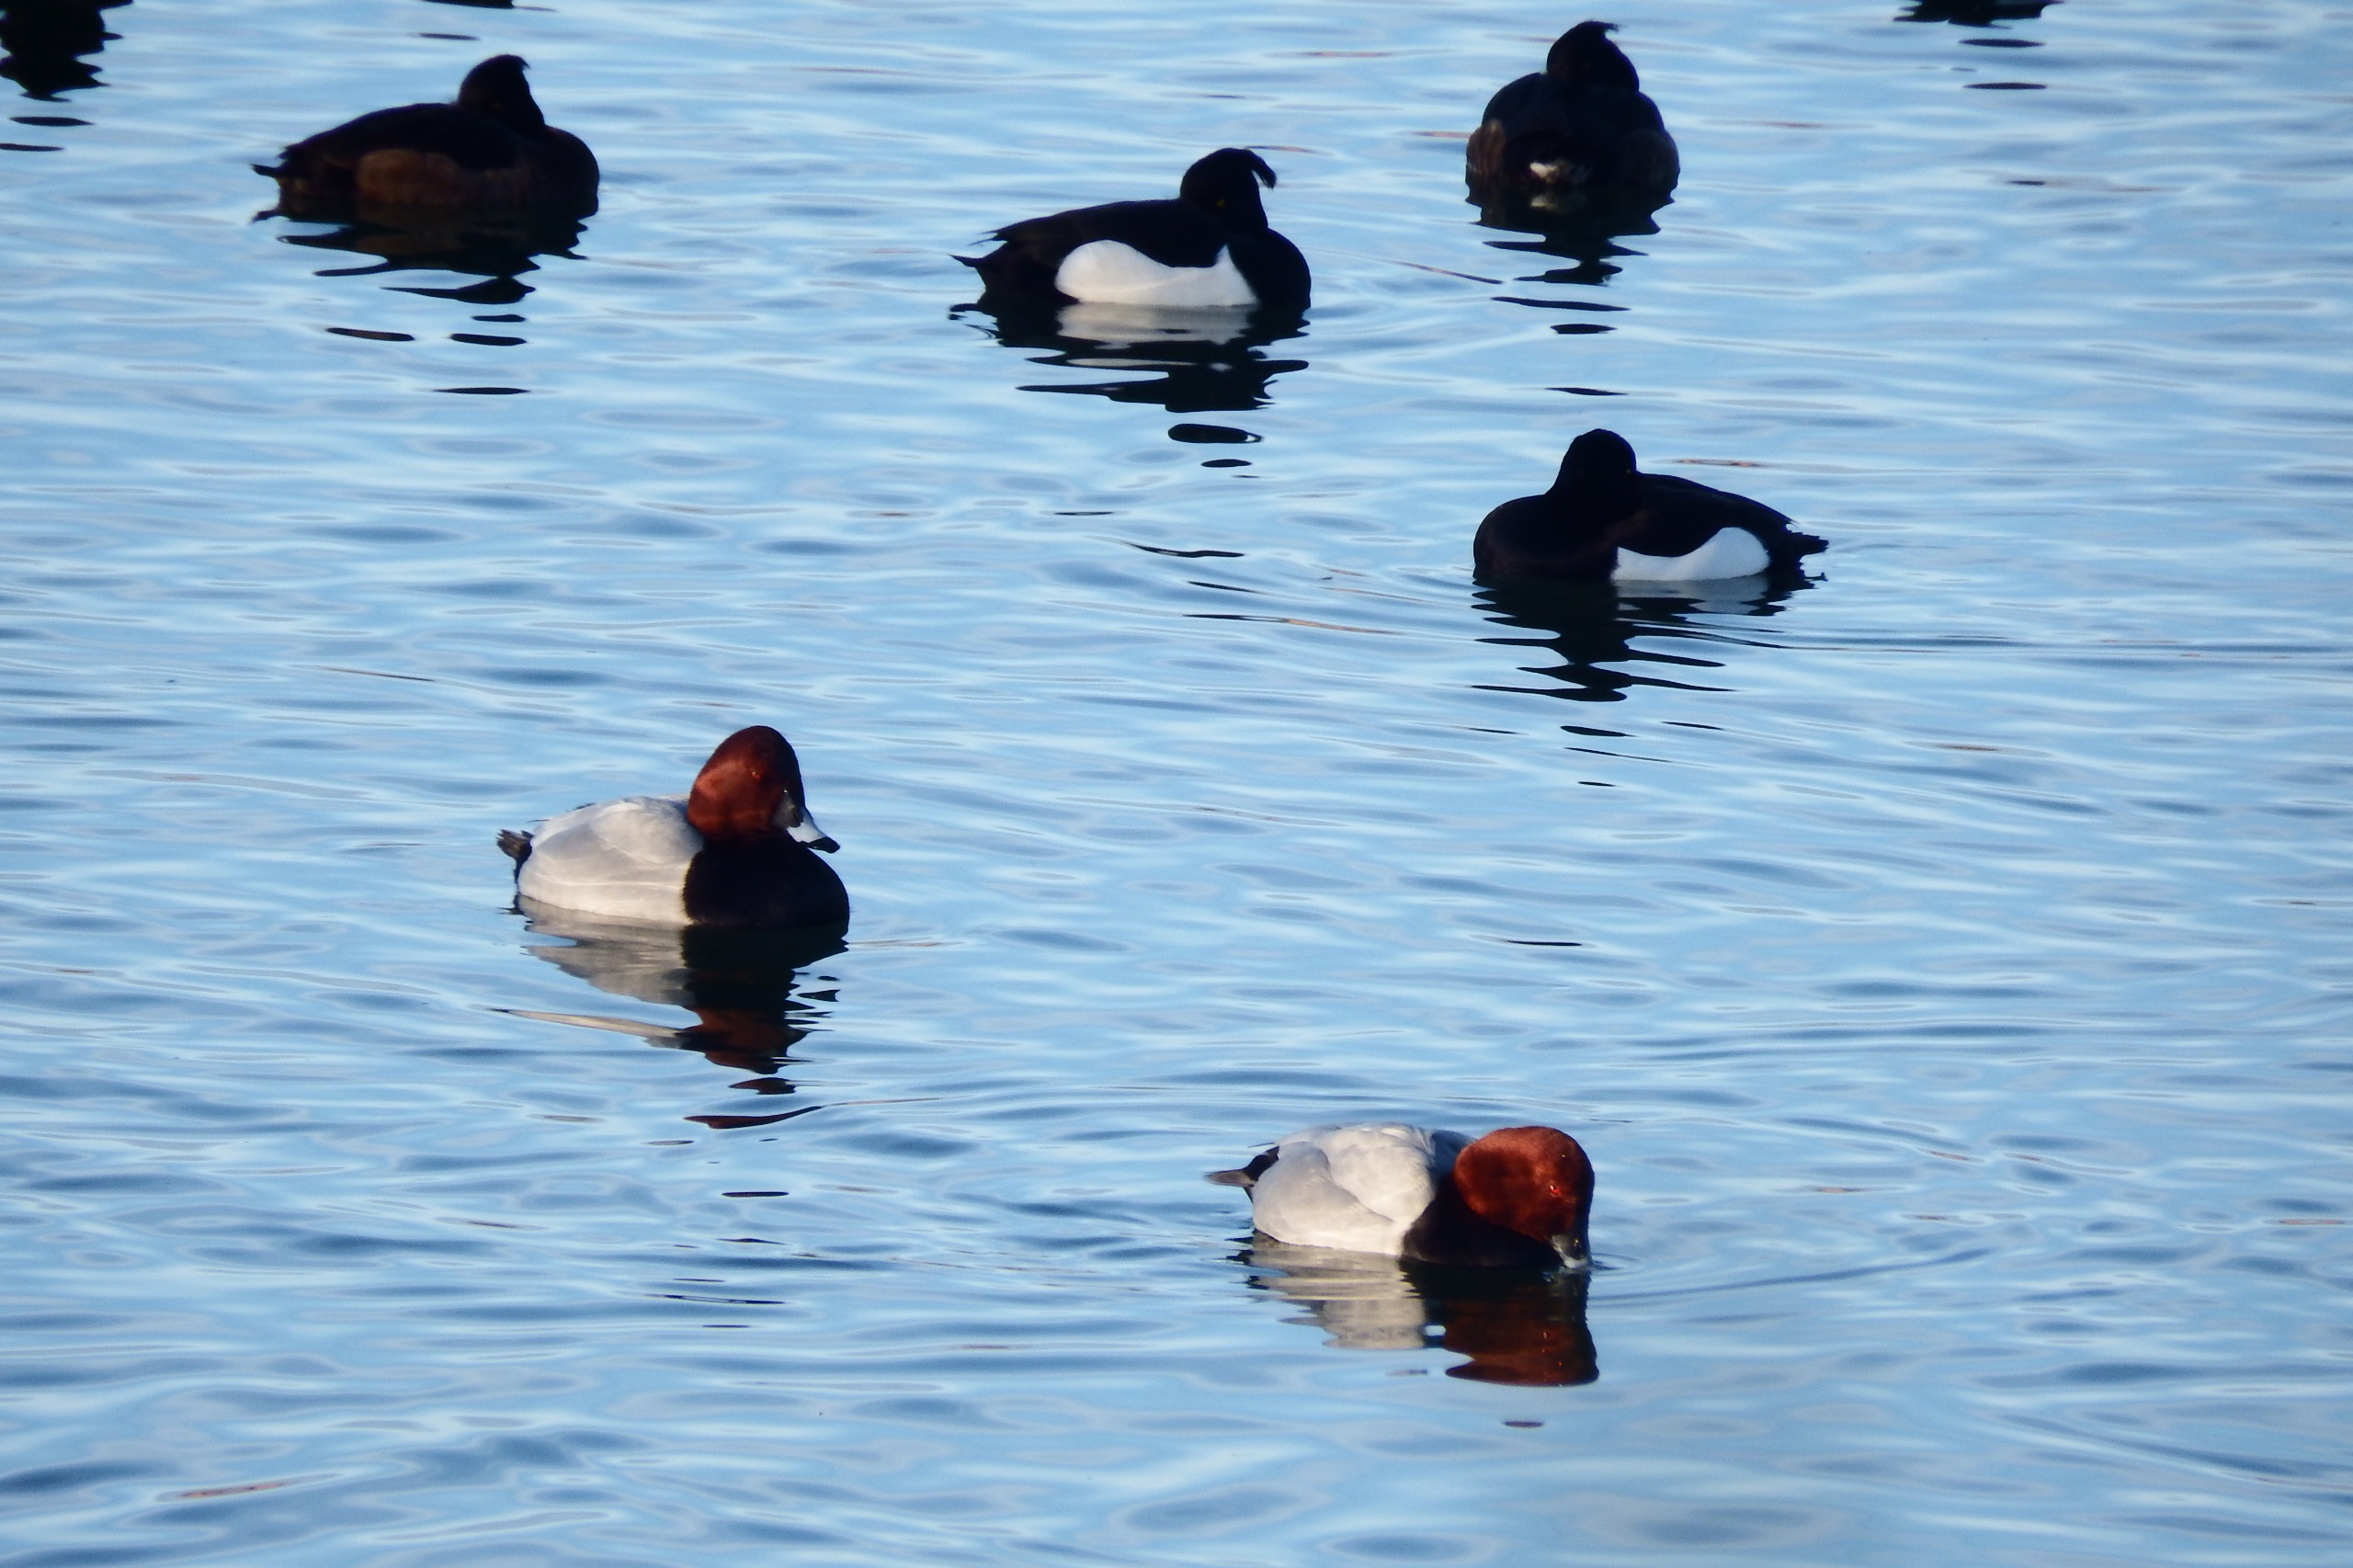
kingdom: Animalia
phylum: Chordata
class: Aves
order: Anseriformes
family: Anatidae
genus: Aythya
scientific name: Aythya ferina
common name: Taffeland
